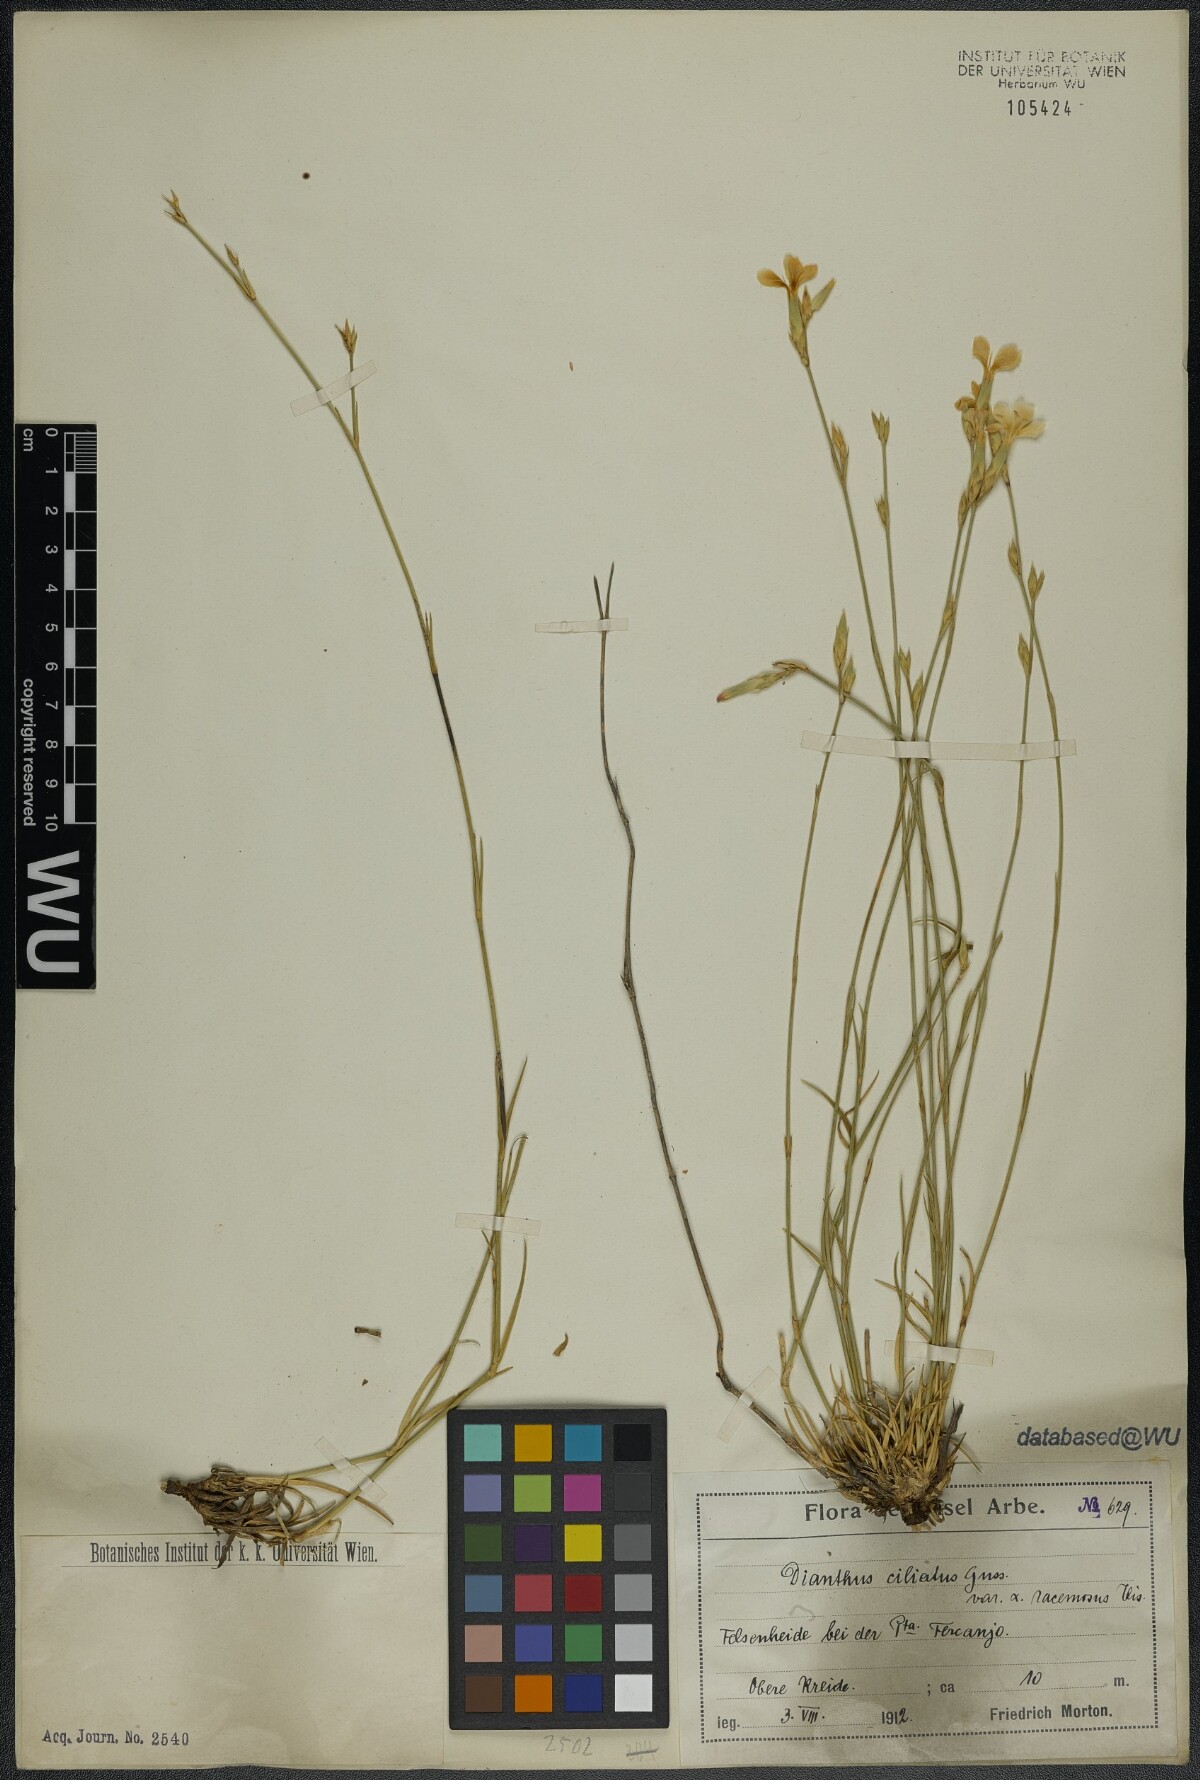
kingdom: Plantae
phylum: Tracheophyta
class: Magnoliopsida
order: Caryophyllales
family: Caryophyllaceae
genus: Dianthus
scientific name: Dianthus ciliatus
